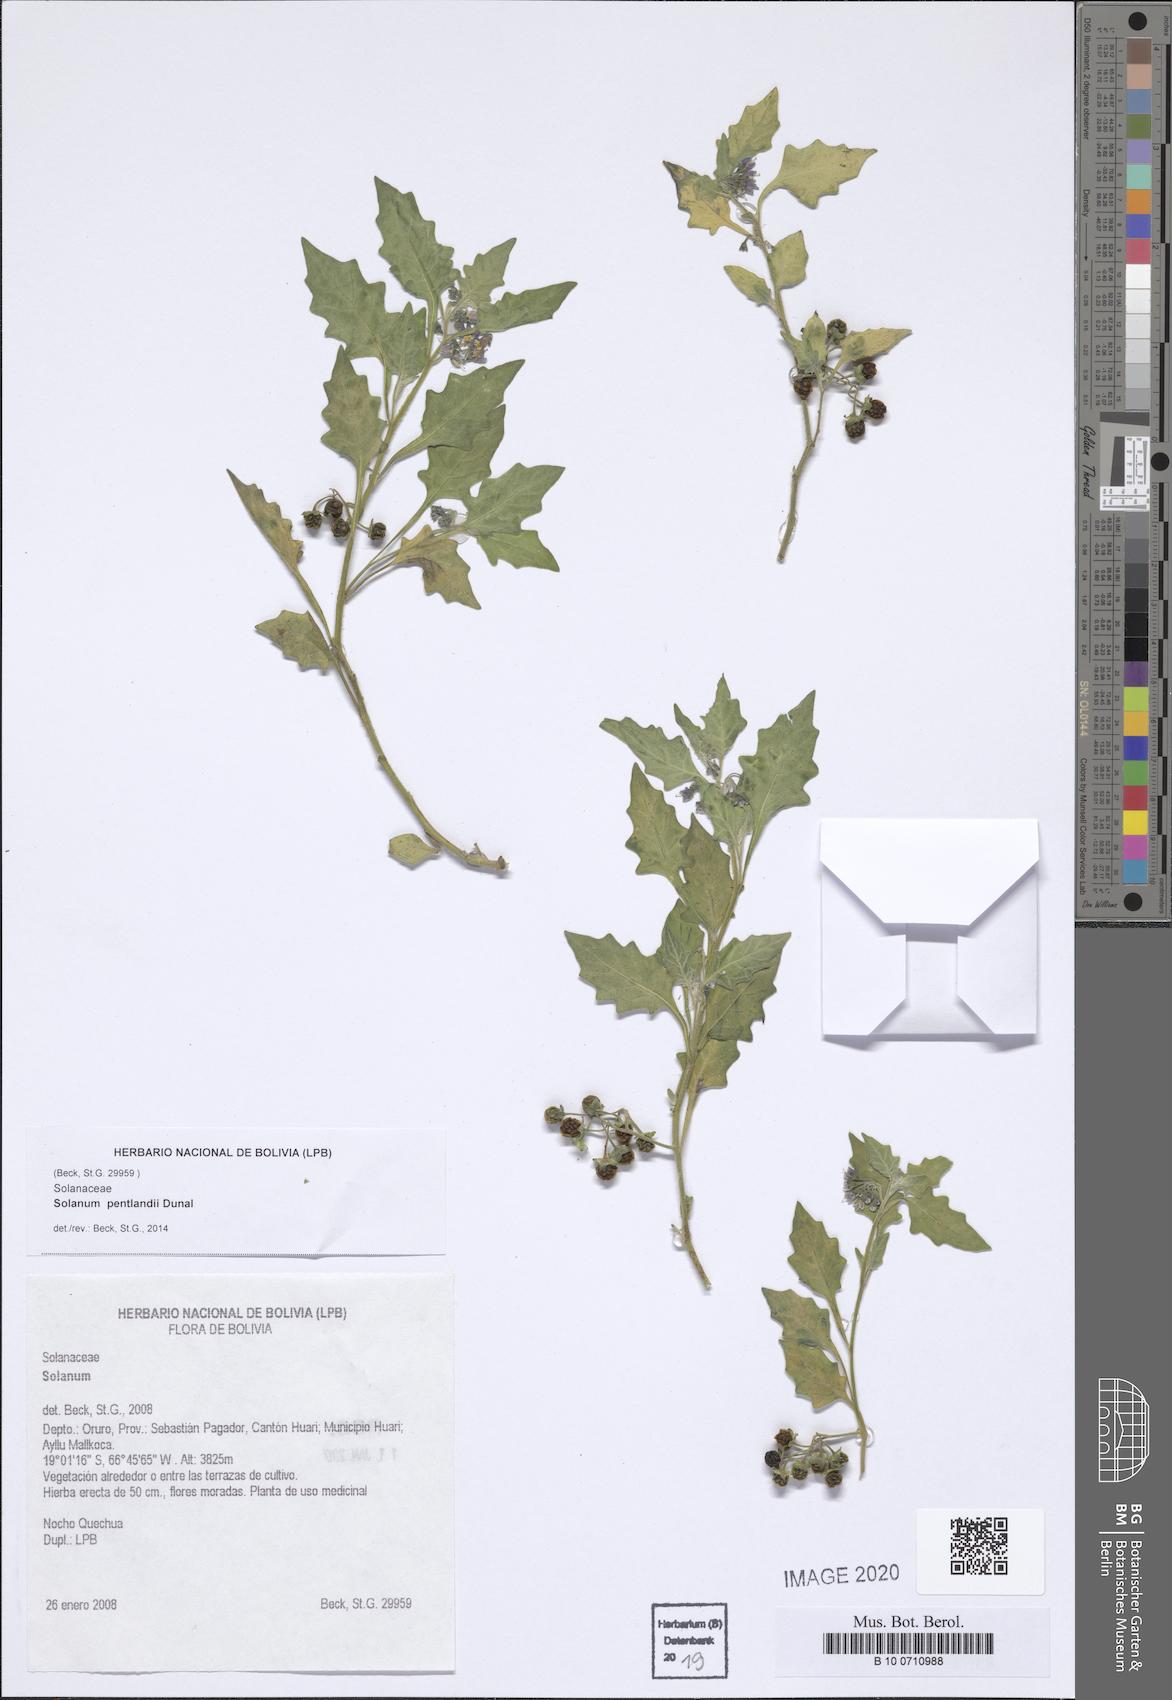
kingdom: Plantae
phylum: Tracheophyta
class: Magnoliopsida
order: Solanales
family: Solanaceae
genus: Solanum
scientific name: Solanum pentlandii
